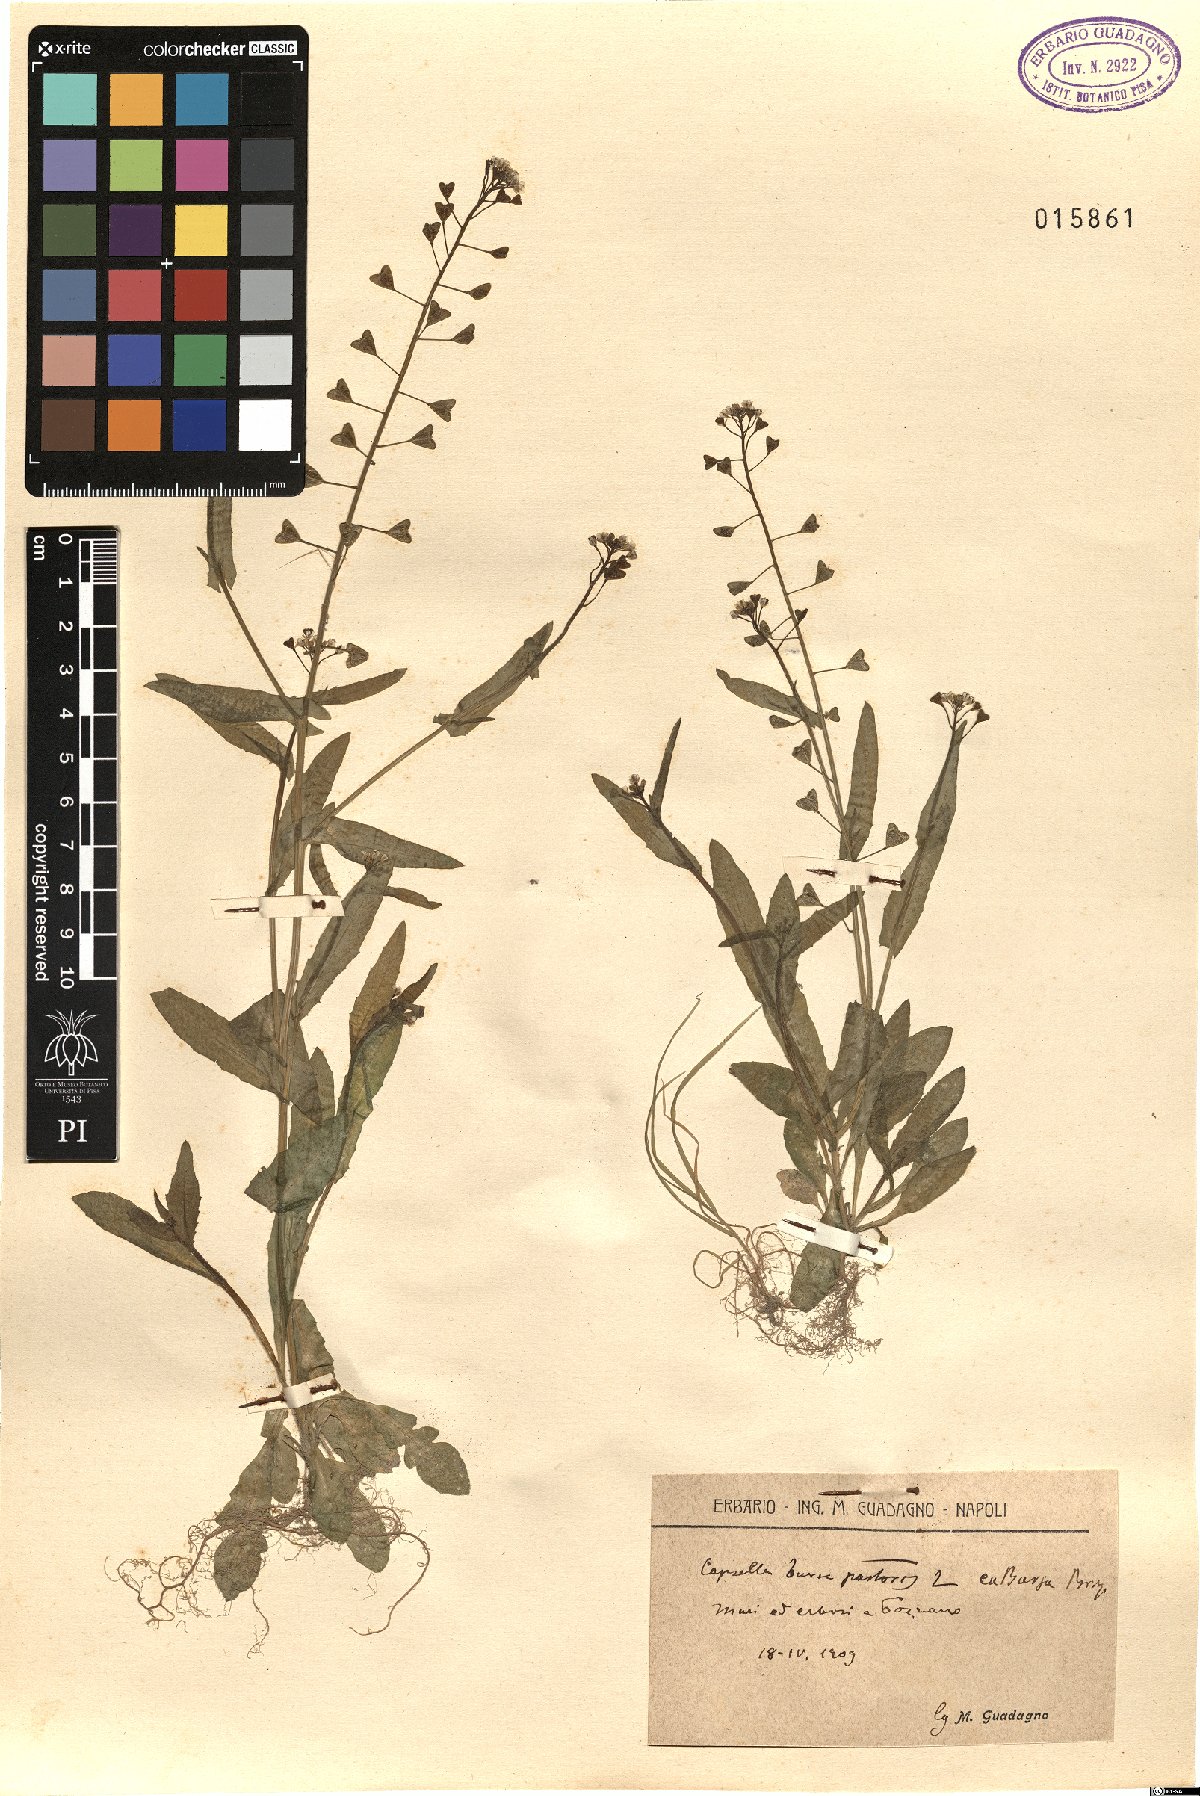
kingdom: Plantae
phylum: Tracheophyta
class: Magnoliopsida
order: Brassicales
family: Brassicaceae
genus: Capsella
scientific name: Capsella bursa-pastoris
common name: Shepherd's purse
